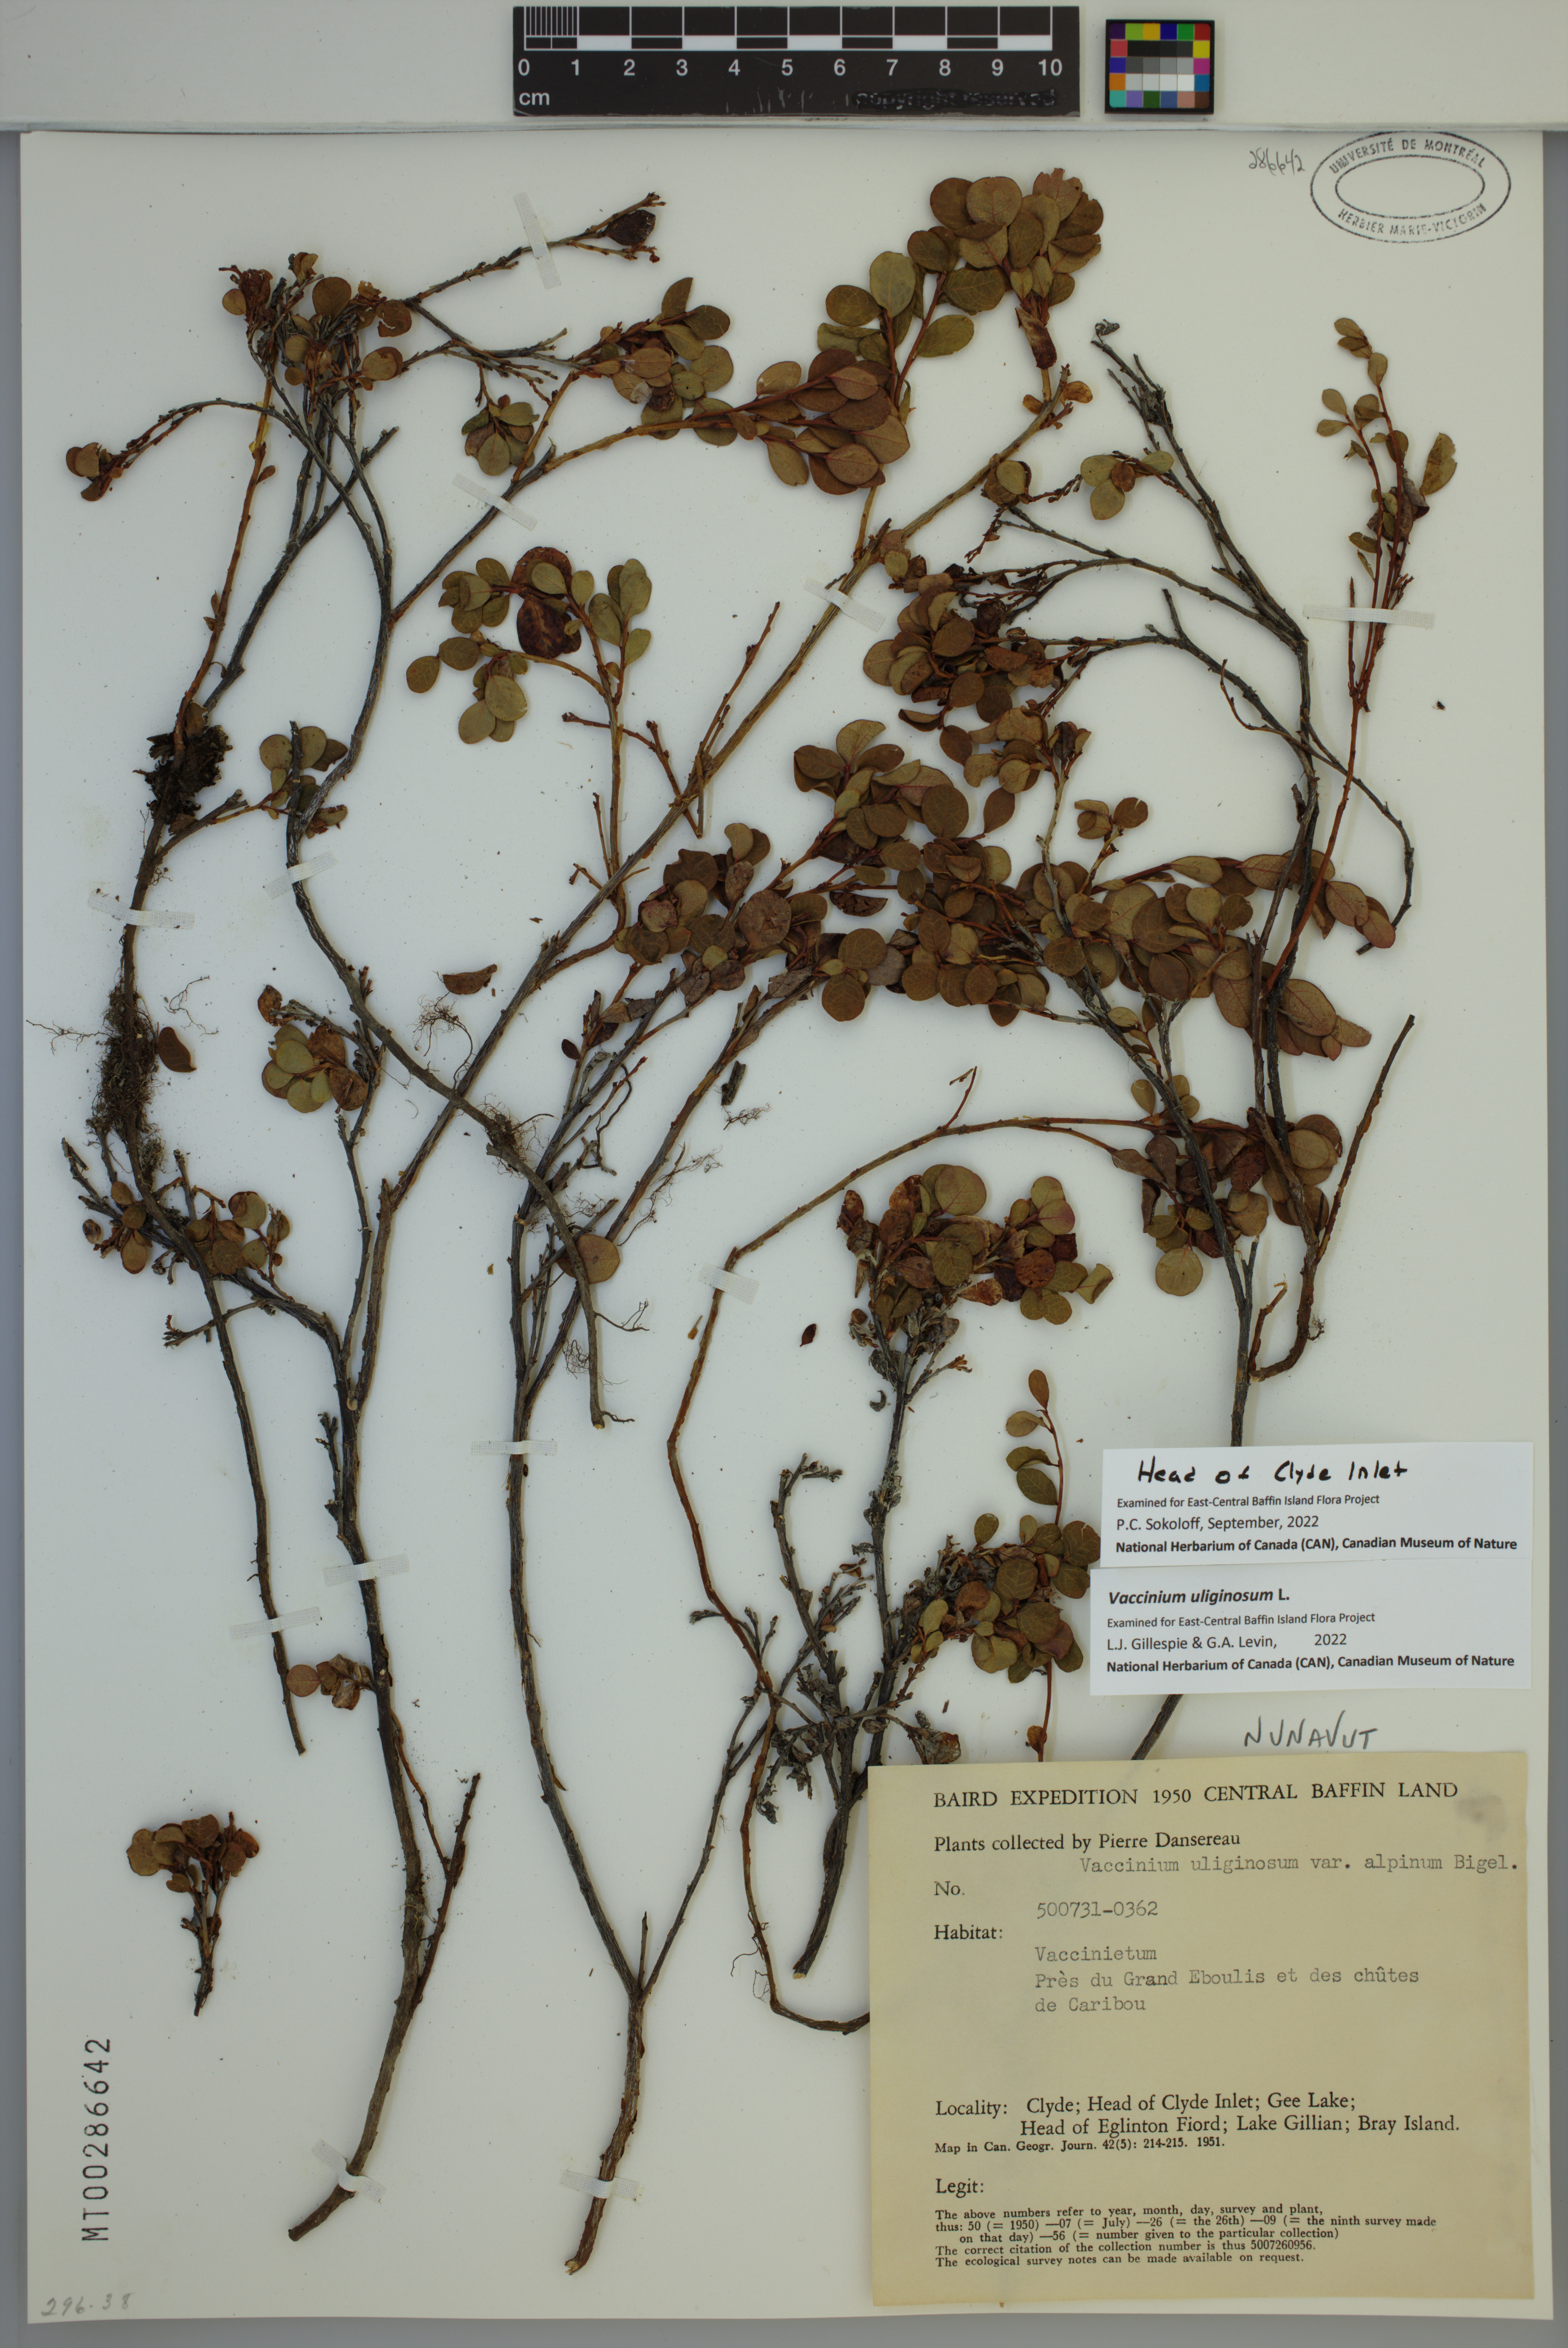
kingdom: Plantae
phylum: Tracheophyta
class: Magnoliopsida
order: Ericales
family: Ericaceae
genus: Vaccinium
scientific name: Vaccinium uliginosum
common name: Bog bilberry
